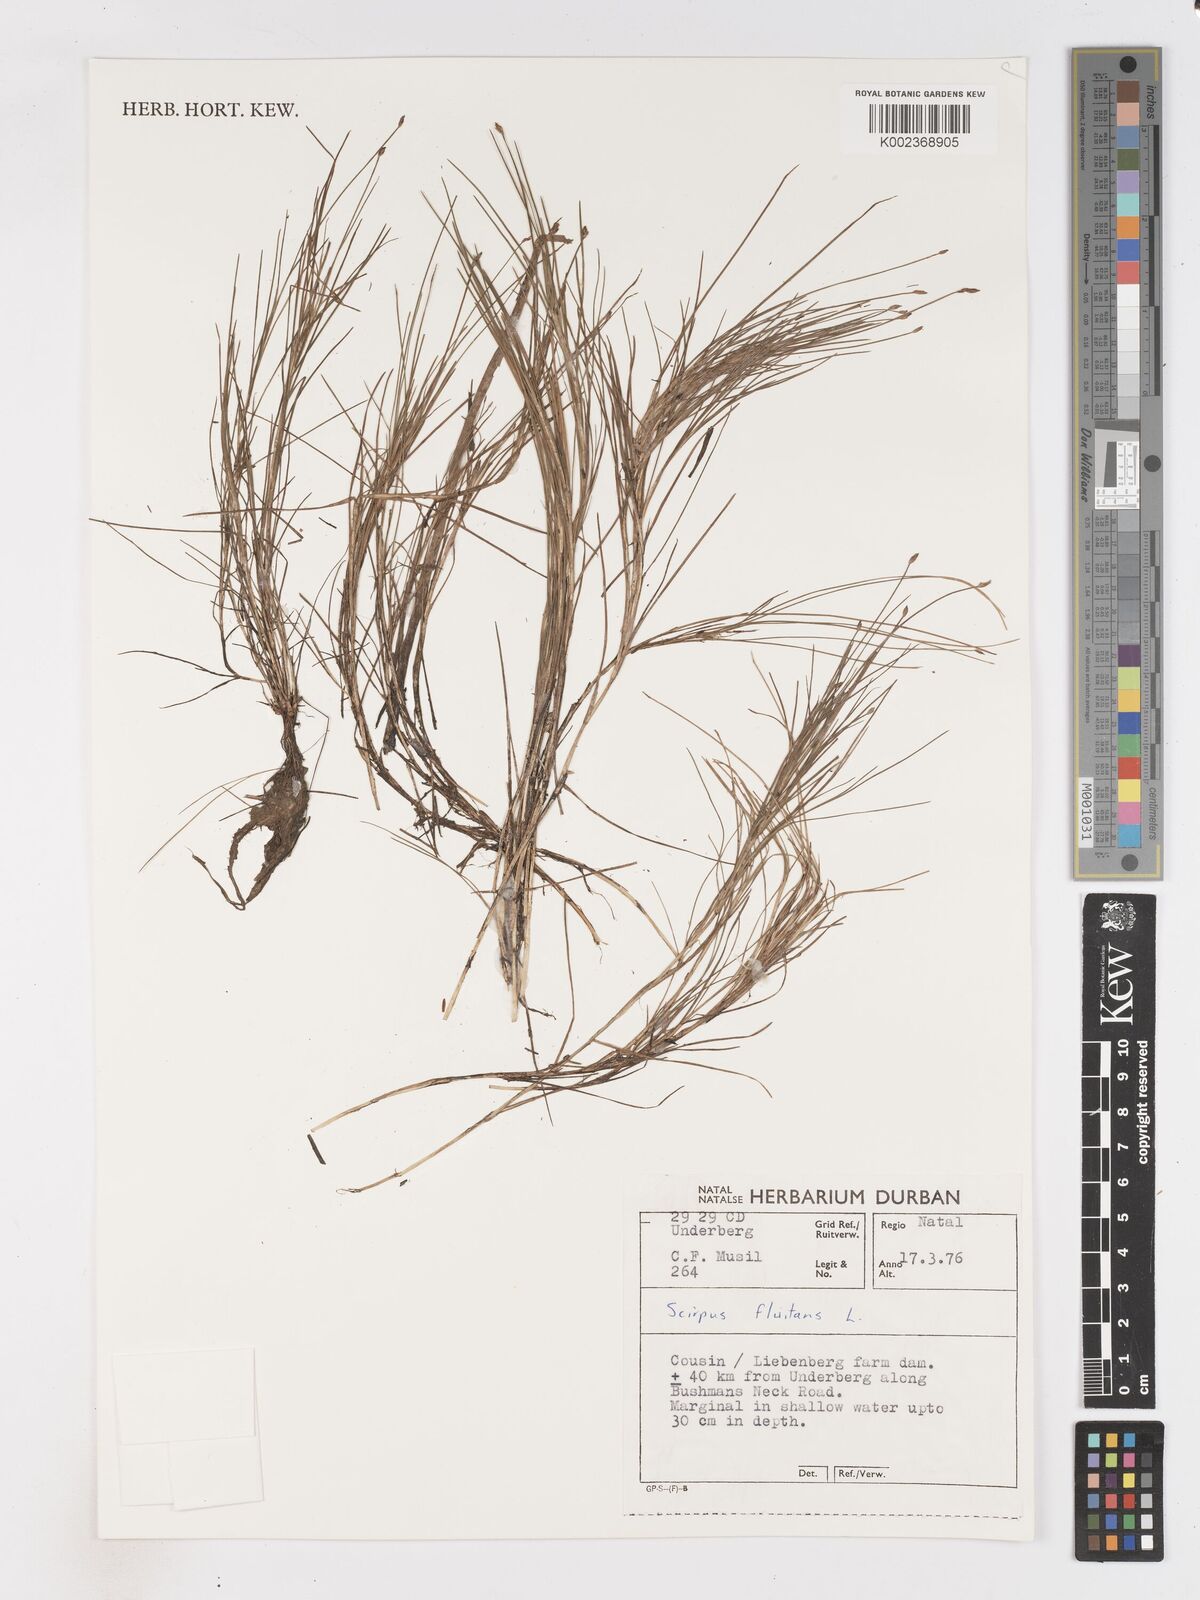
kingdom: Plantae
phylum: Tracheophyta
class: Liliopsida
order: Poales
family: Cyperaceae
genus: Isolepis
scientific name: Isolepis fluitans
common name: Floating club-rush
